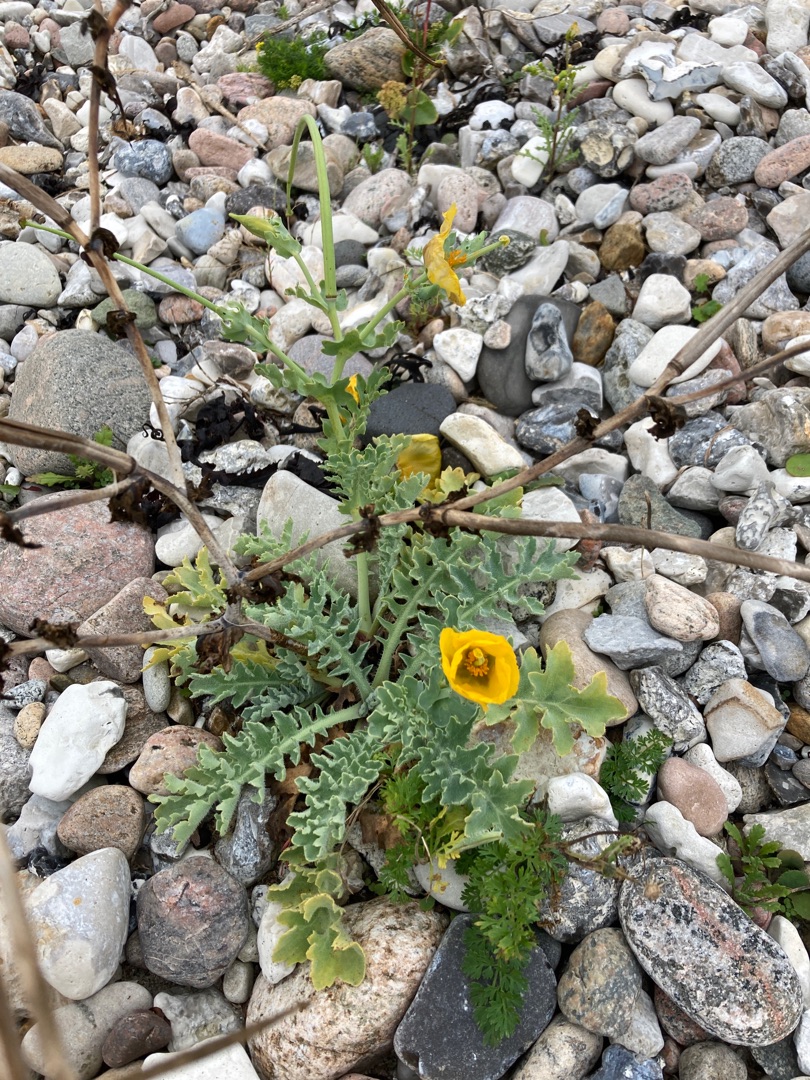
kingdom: Plantae
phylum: Tracheophyta
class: Magnoliopsida
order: Ranunculales
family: Papaveraceae
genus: Glaucium
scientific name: Glaucium flavum
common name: Hornskulpe
